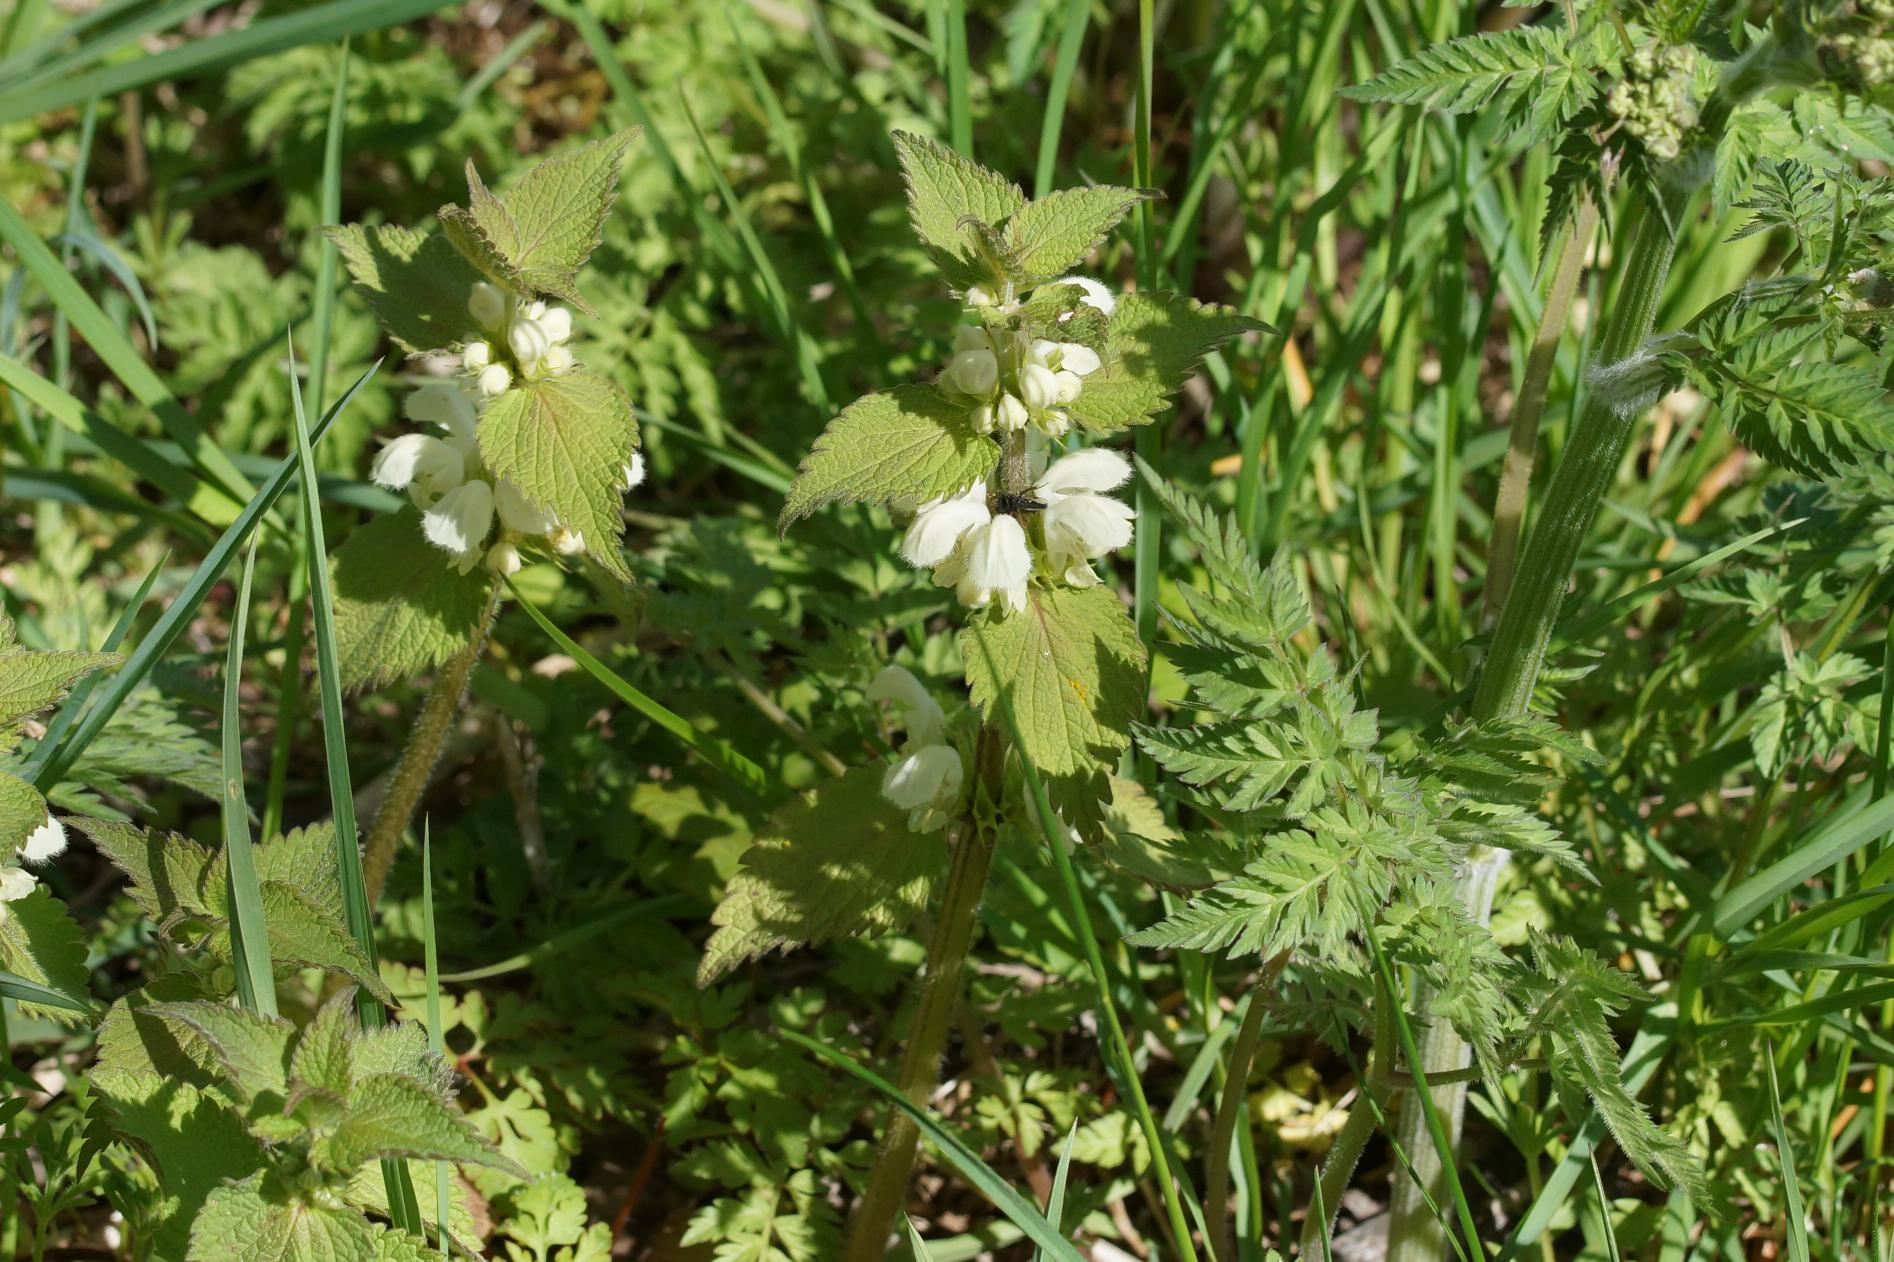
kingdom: Plantae
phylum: Tracheophyta
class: Magnoliopsida
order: Lamiales
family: Lamiaceae
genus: Lamium
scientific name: Lamium album
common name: Døvnælde
